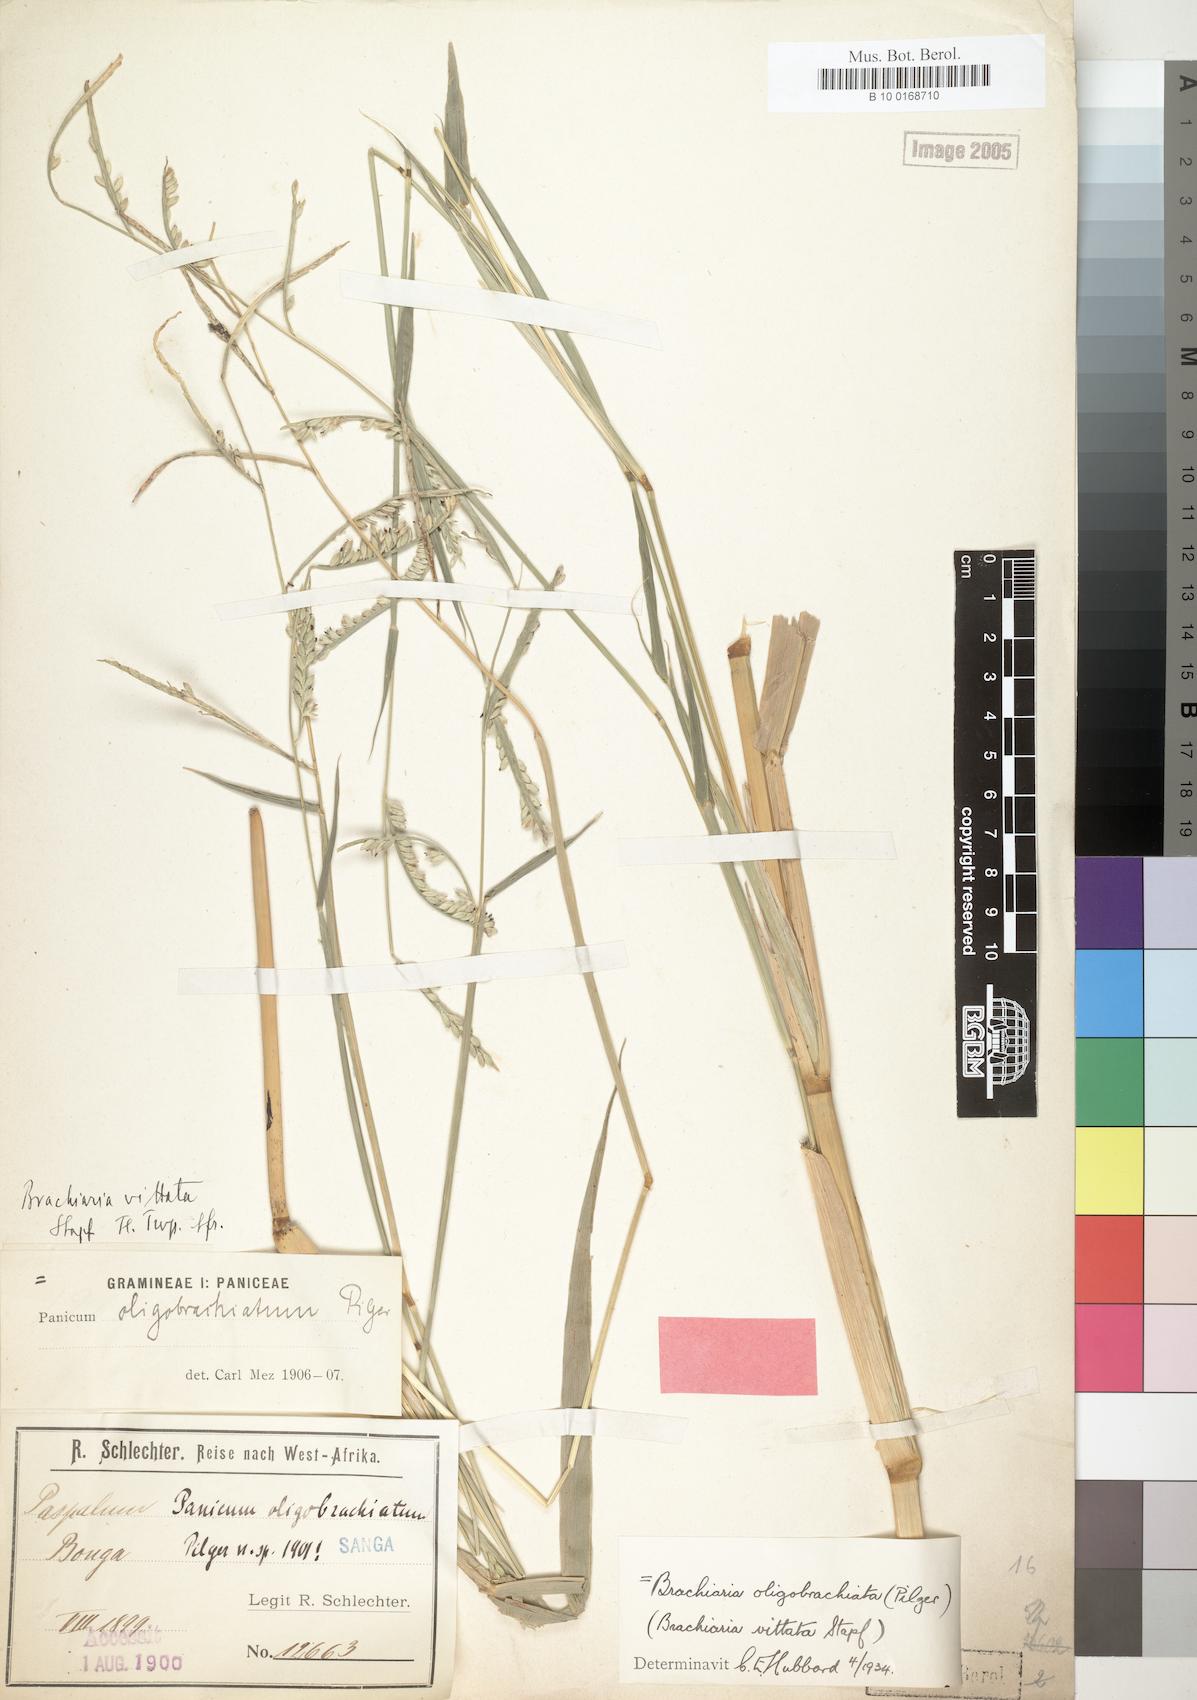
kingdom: Plantae
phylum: Tracheophyta
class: Liliopsida
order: Poales
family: Poaceae
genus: Urochloa
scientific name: Urochloa oligobrachiata
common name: Weak signalgrass
